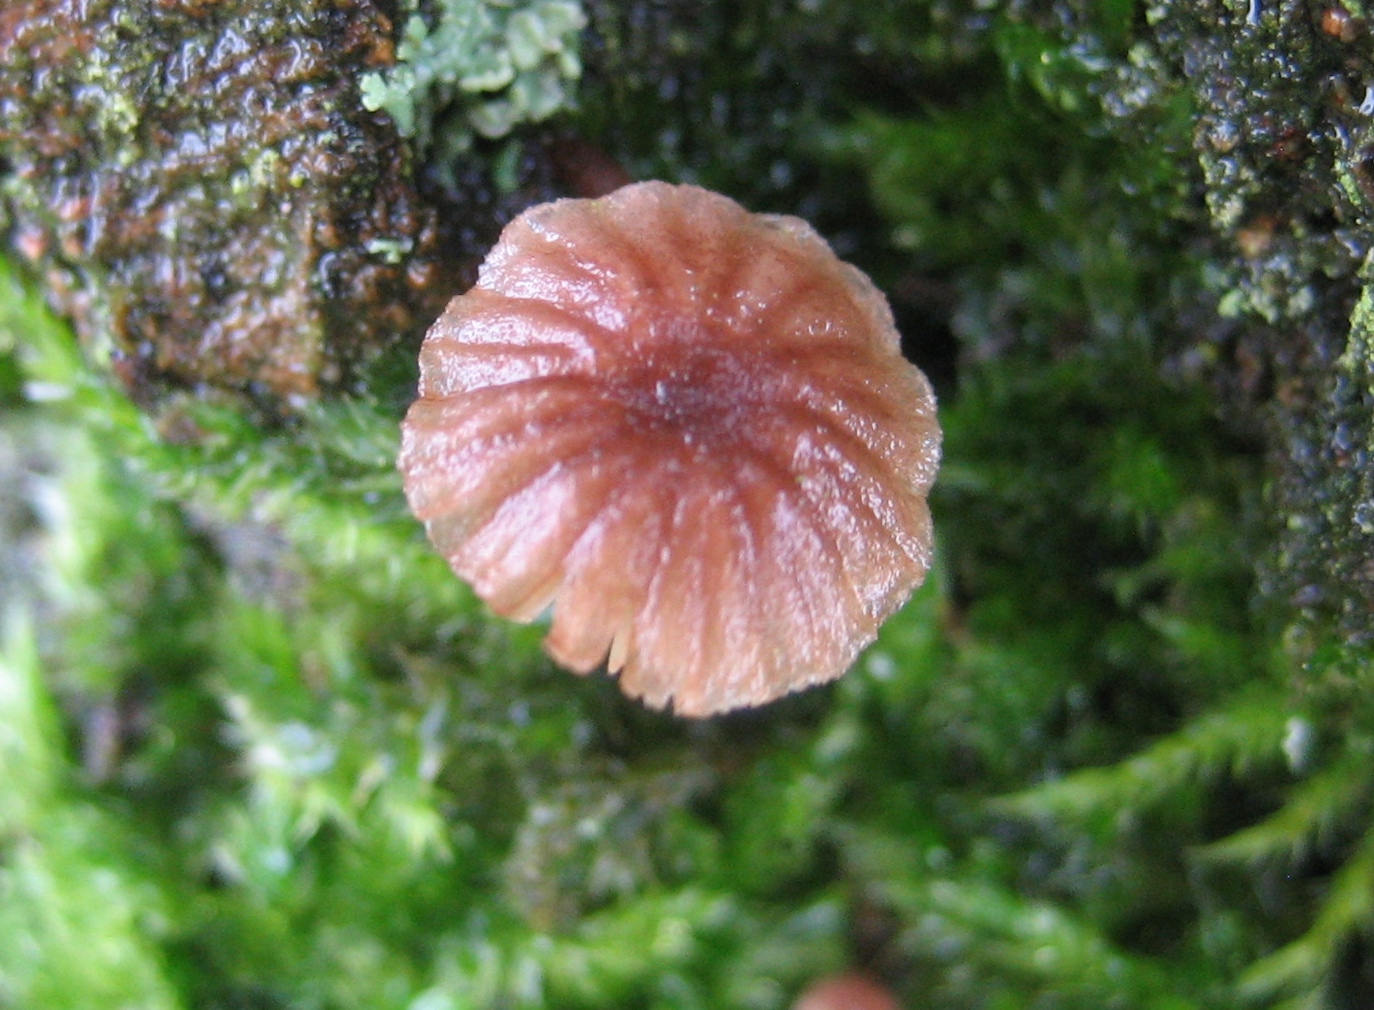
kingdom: Fungi
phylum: Basidiomycota
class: Agaricomycetes
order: Agaricales
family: Mycenaceae
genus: Mycena
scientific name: Mycena
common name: huesvamp
